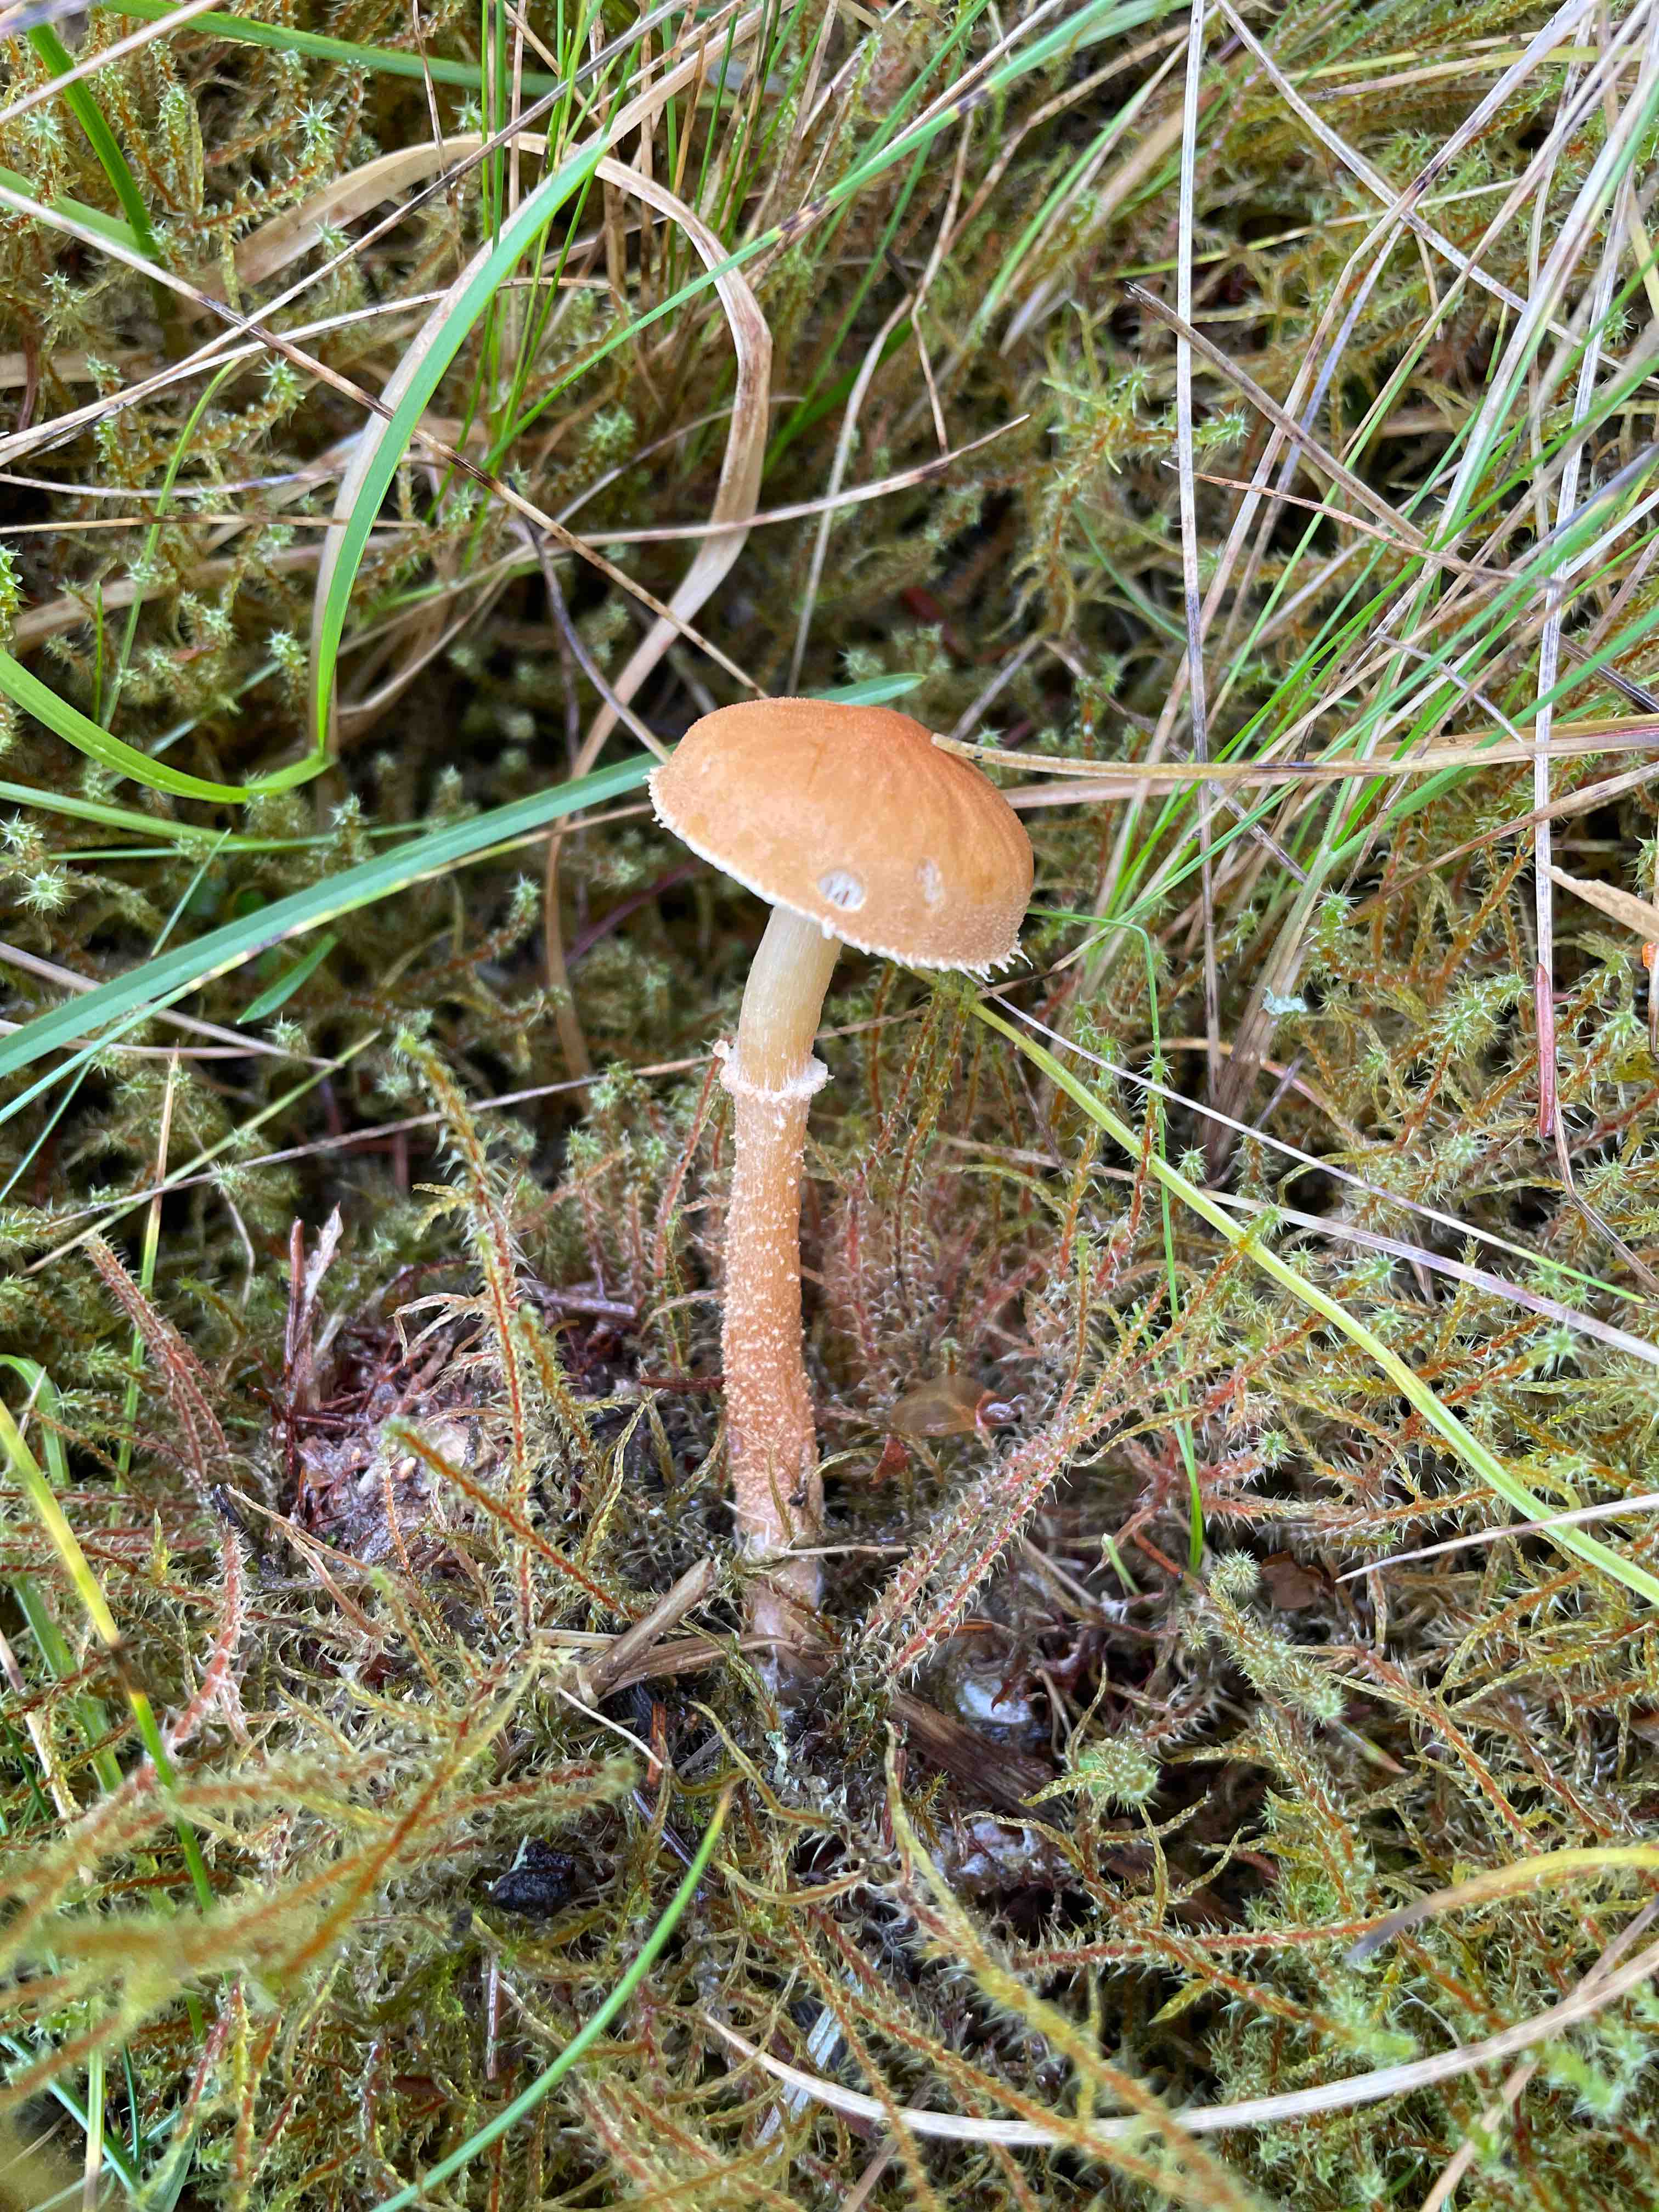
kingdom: Fungi
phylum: Basidiomycota
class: Agaricomycetes
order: Agaricales
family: Tricholomataceae
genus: Cystoderma
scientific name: Cystoderma amianthinum
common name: okkergul grynhat
